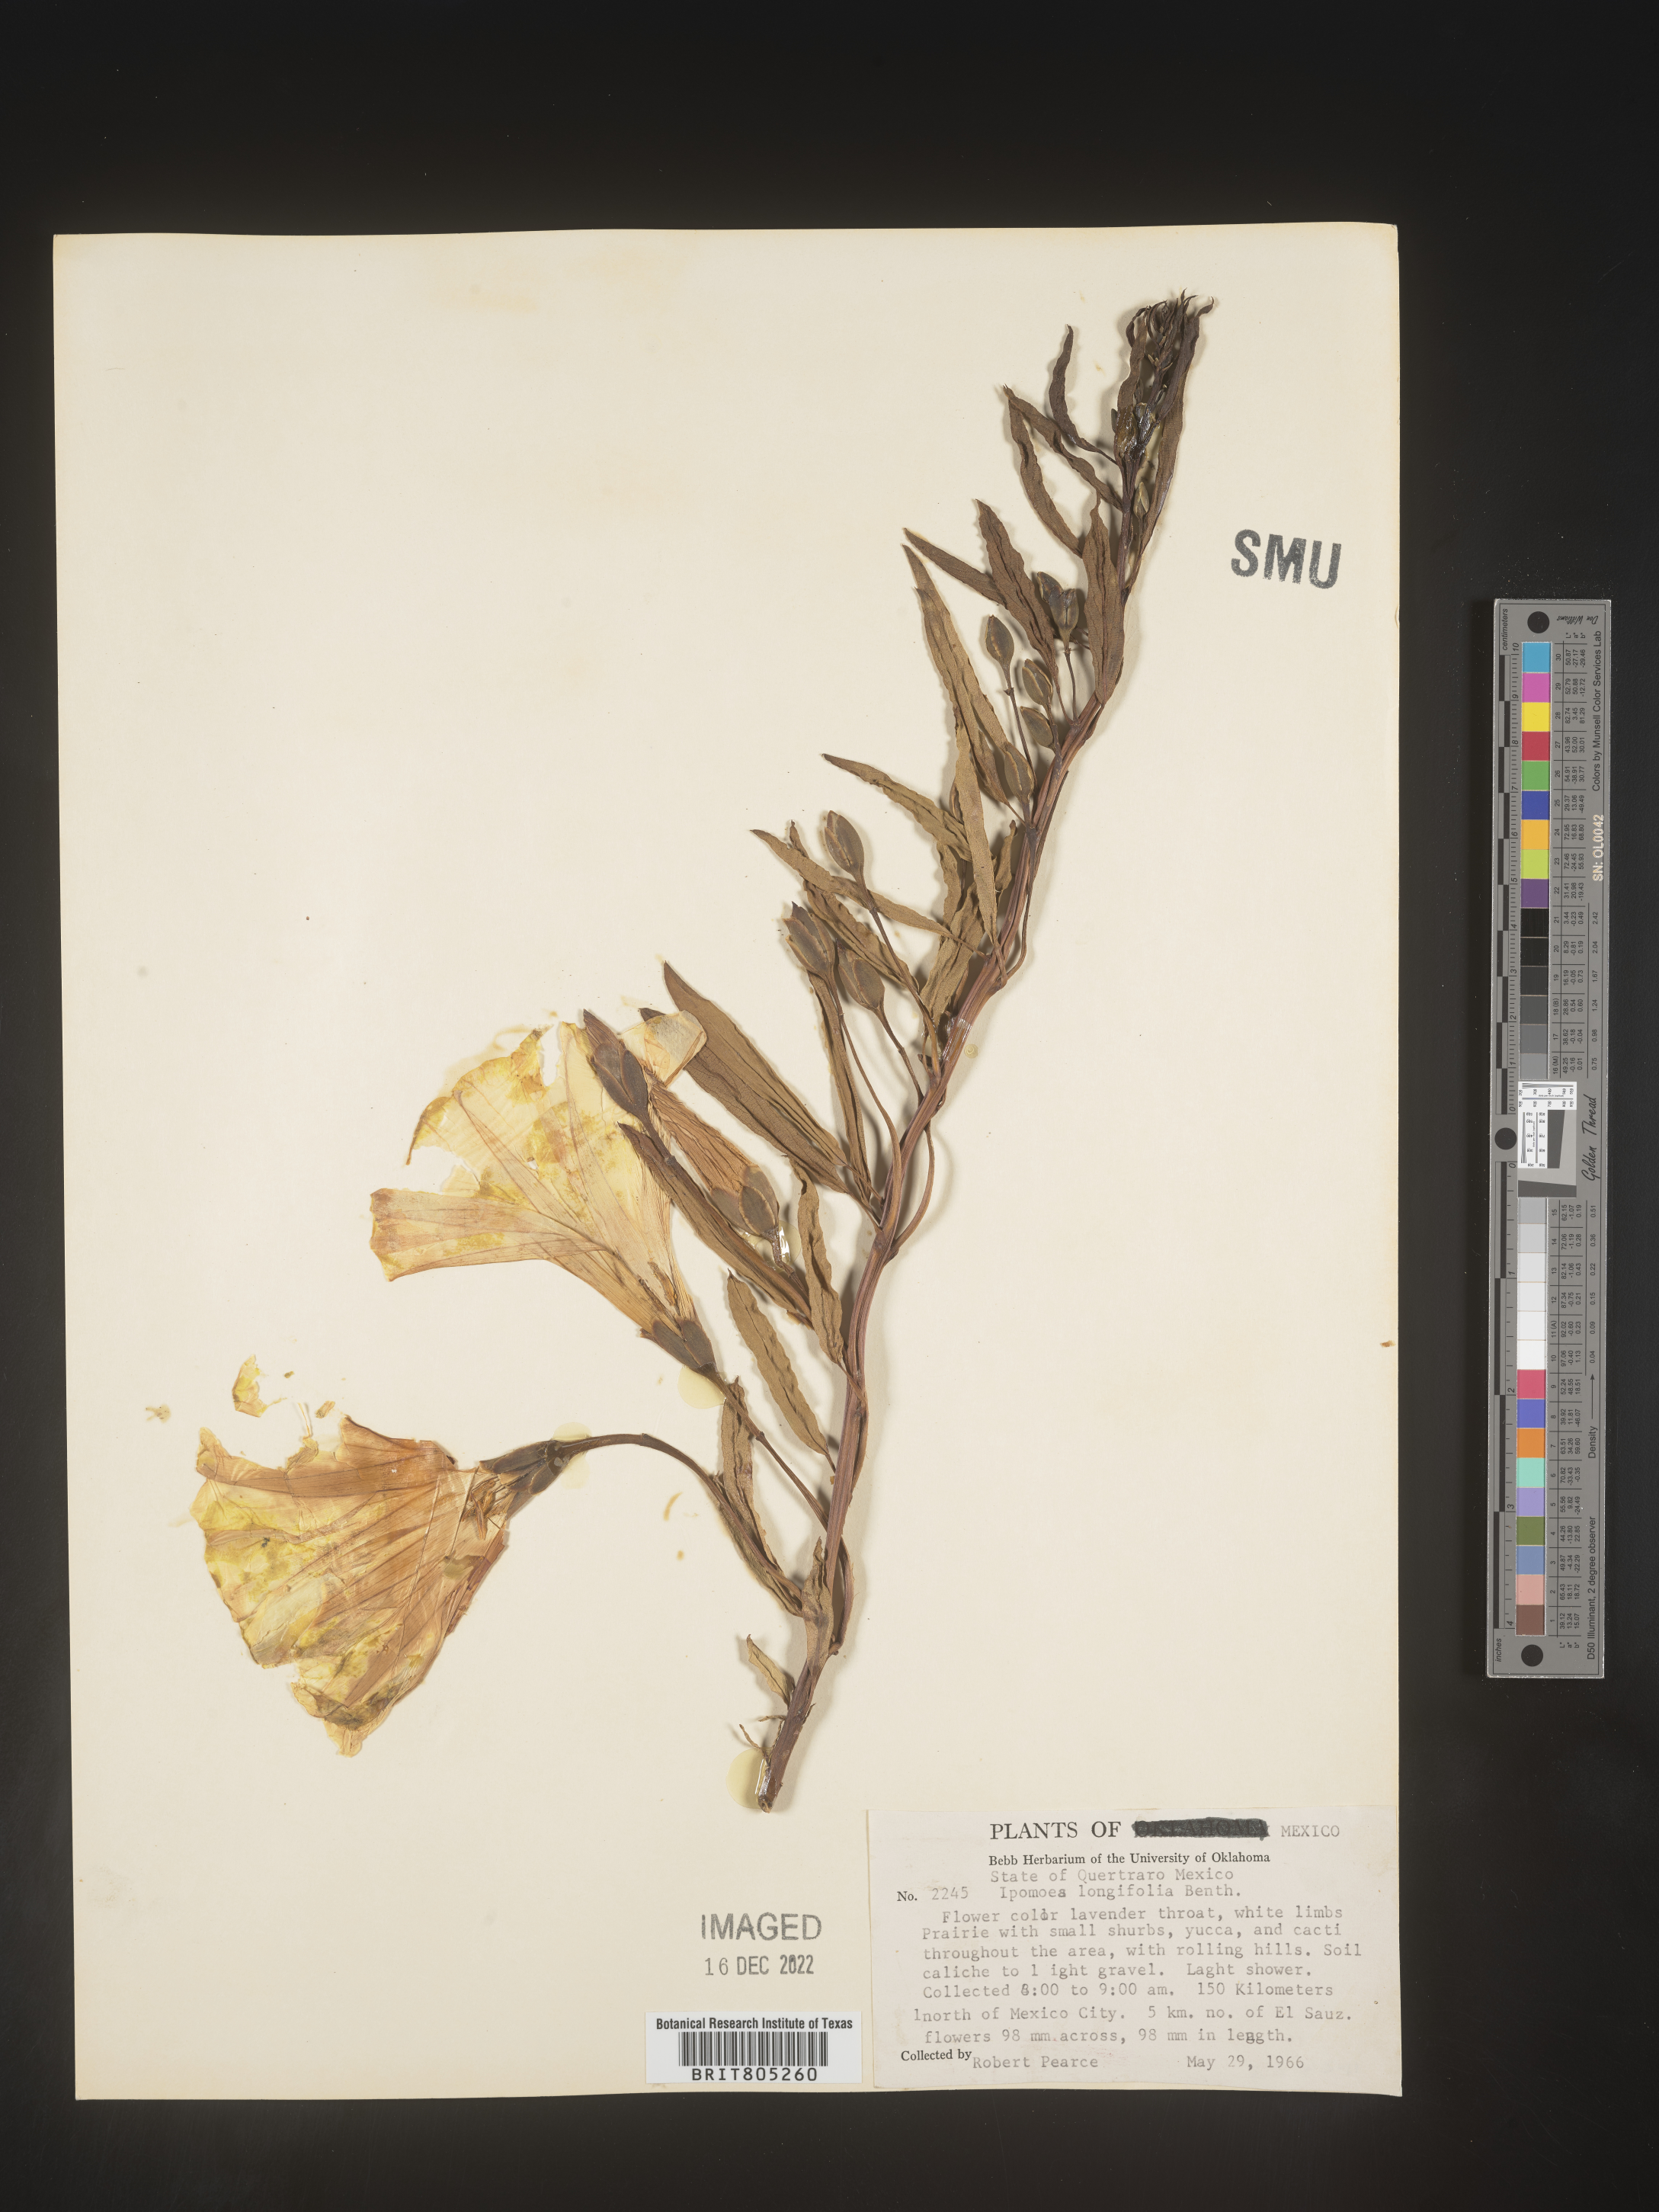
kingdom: Plantae
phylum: Tracheophyta
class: Magnoliopsida
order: Solanales
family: Convolvulaceae
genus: Ipomoea
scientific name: Ipomoea
